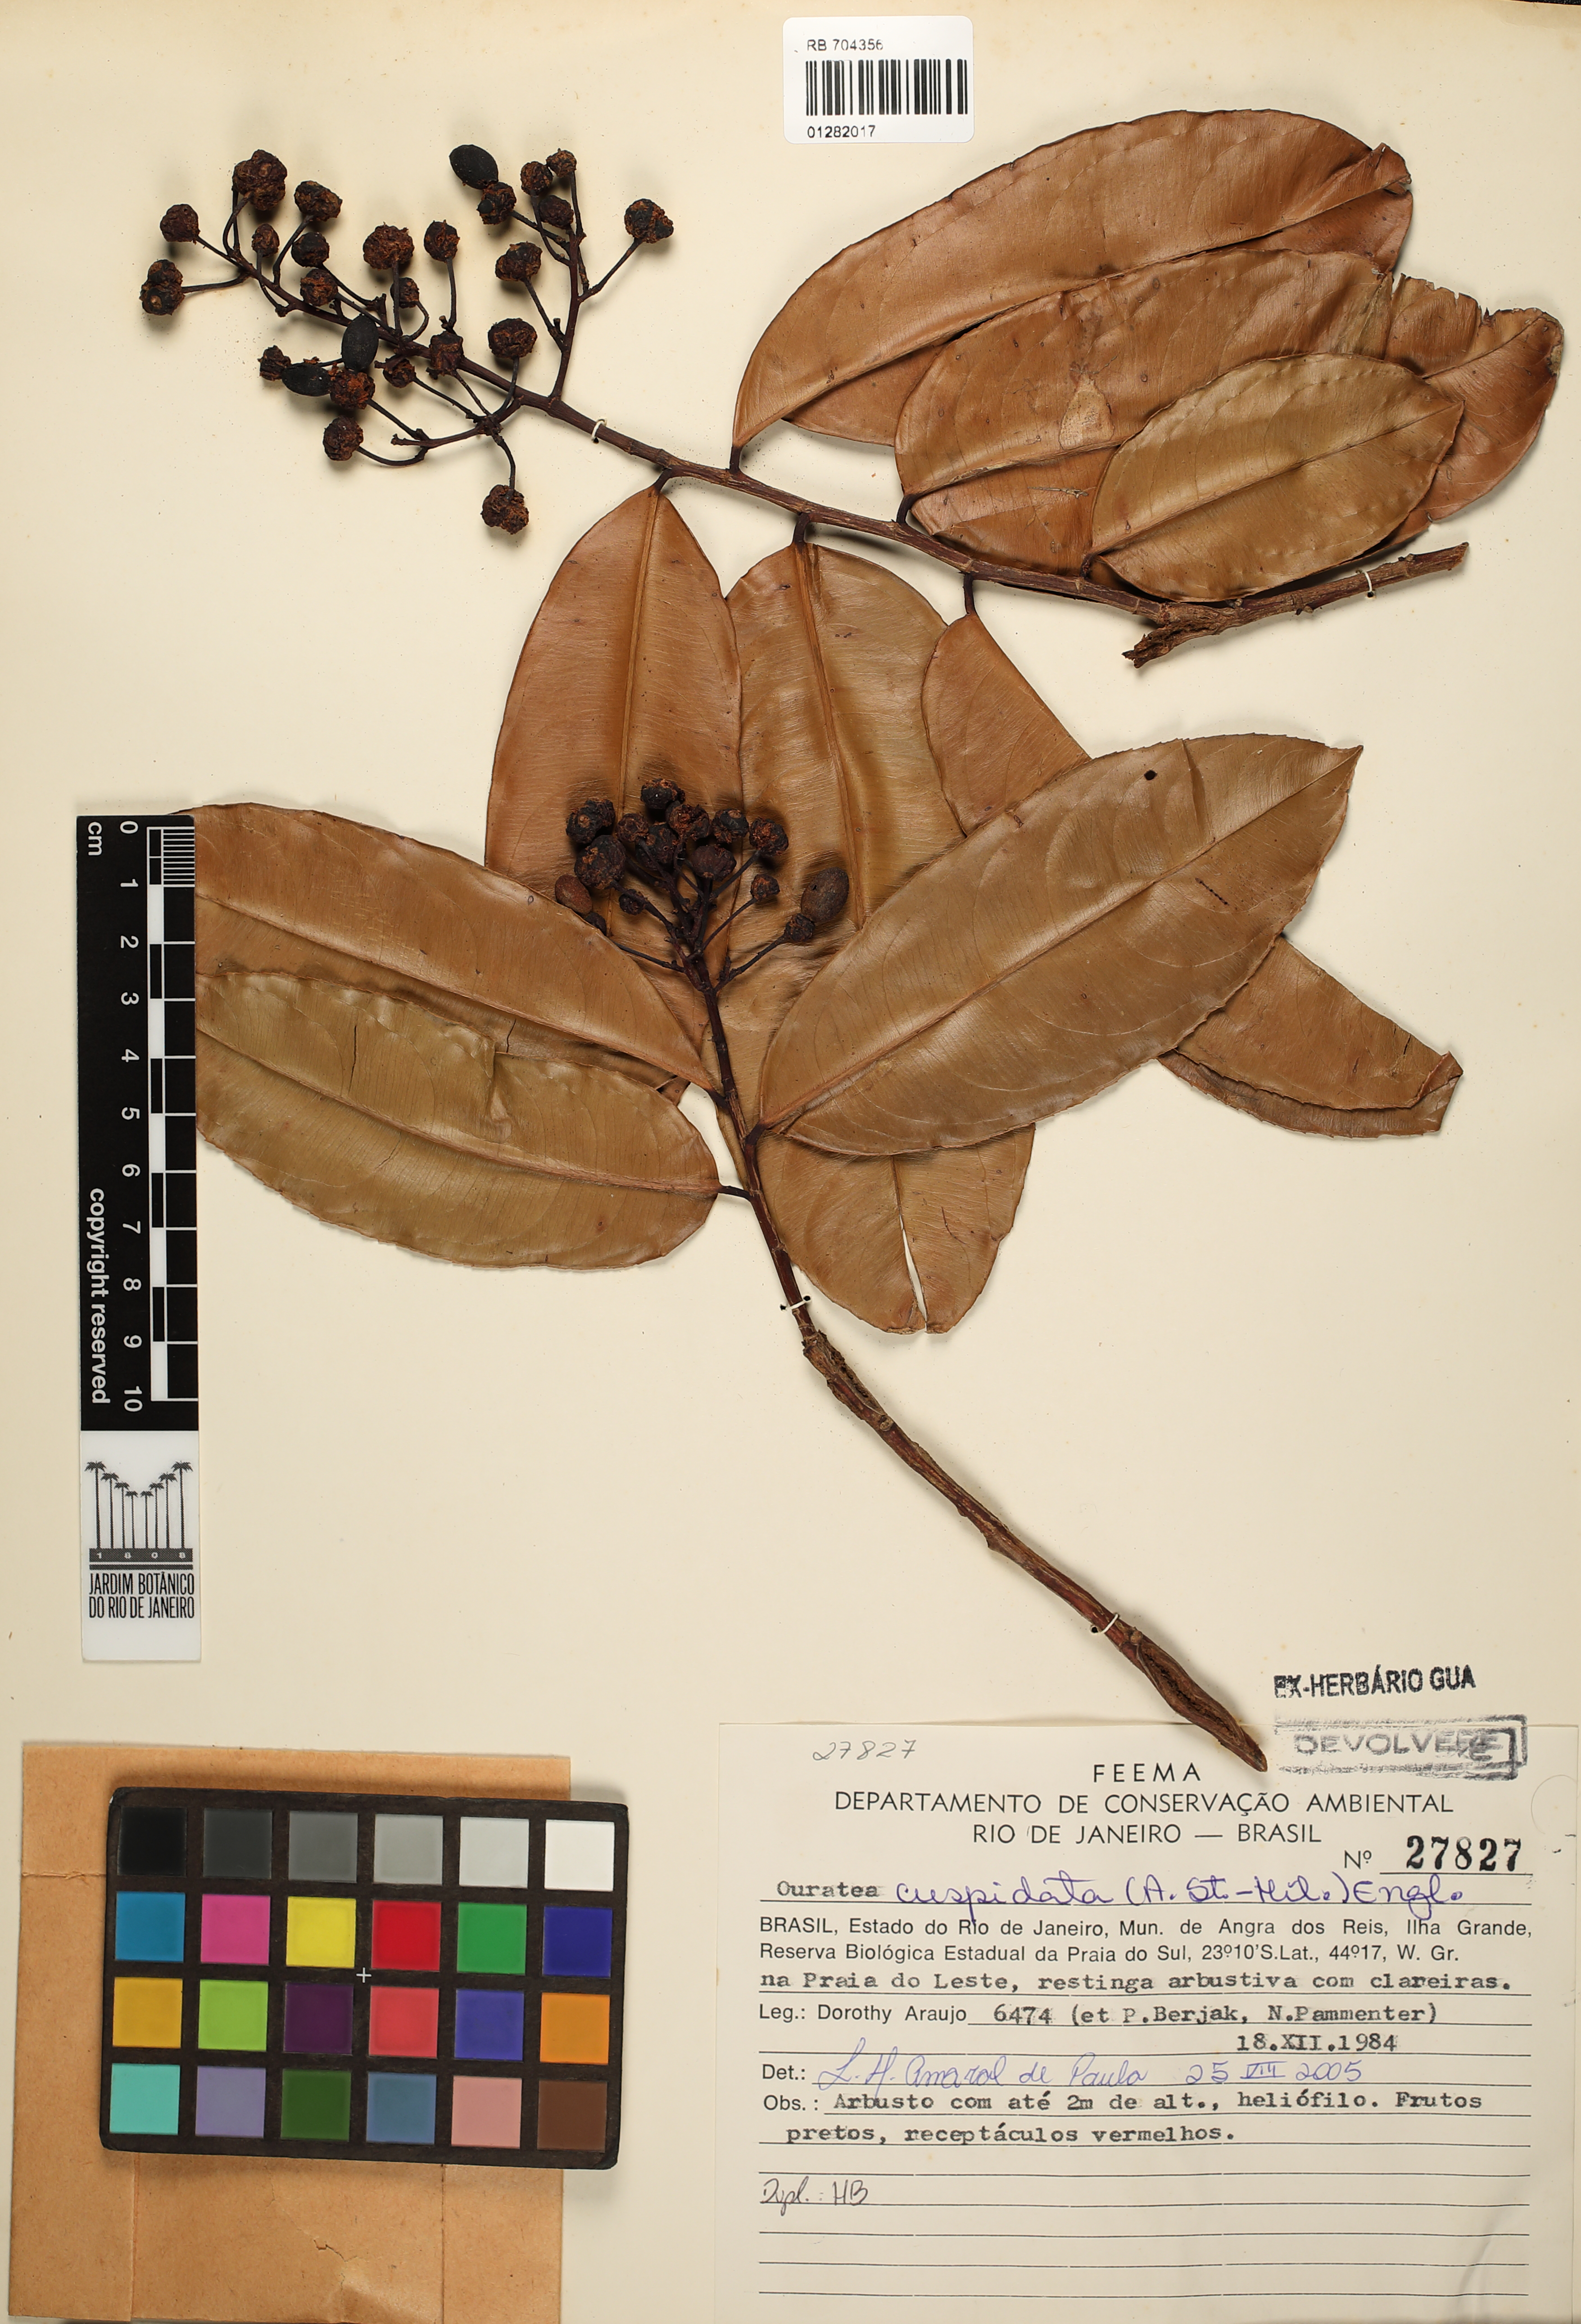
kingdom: Plantae
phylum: Tracheophyta
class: Magnoliopsida
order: Malpighiales
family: Ochnaceae
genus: Ouratea
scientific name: Ouratea cuspidata
